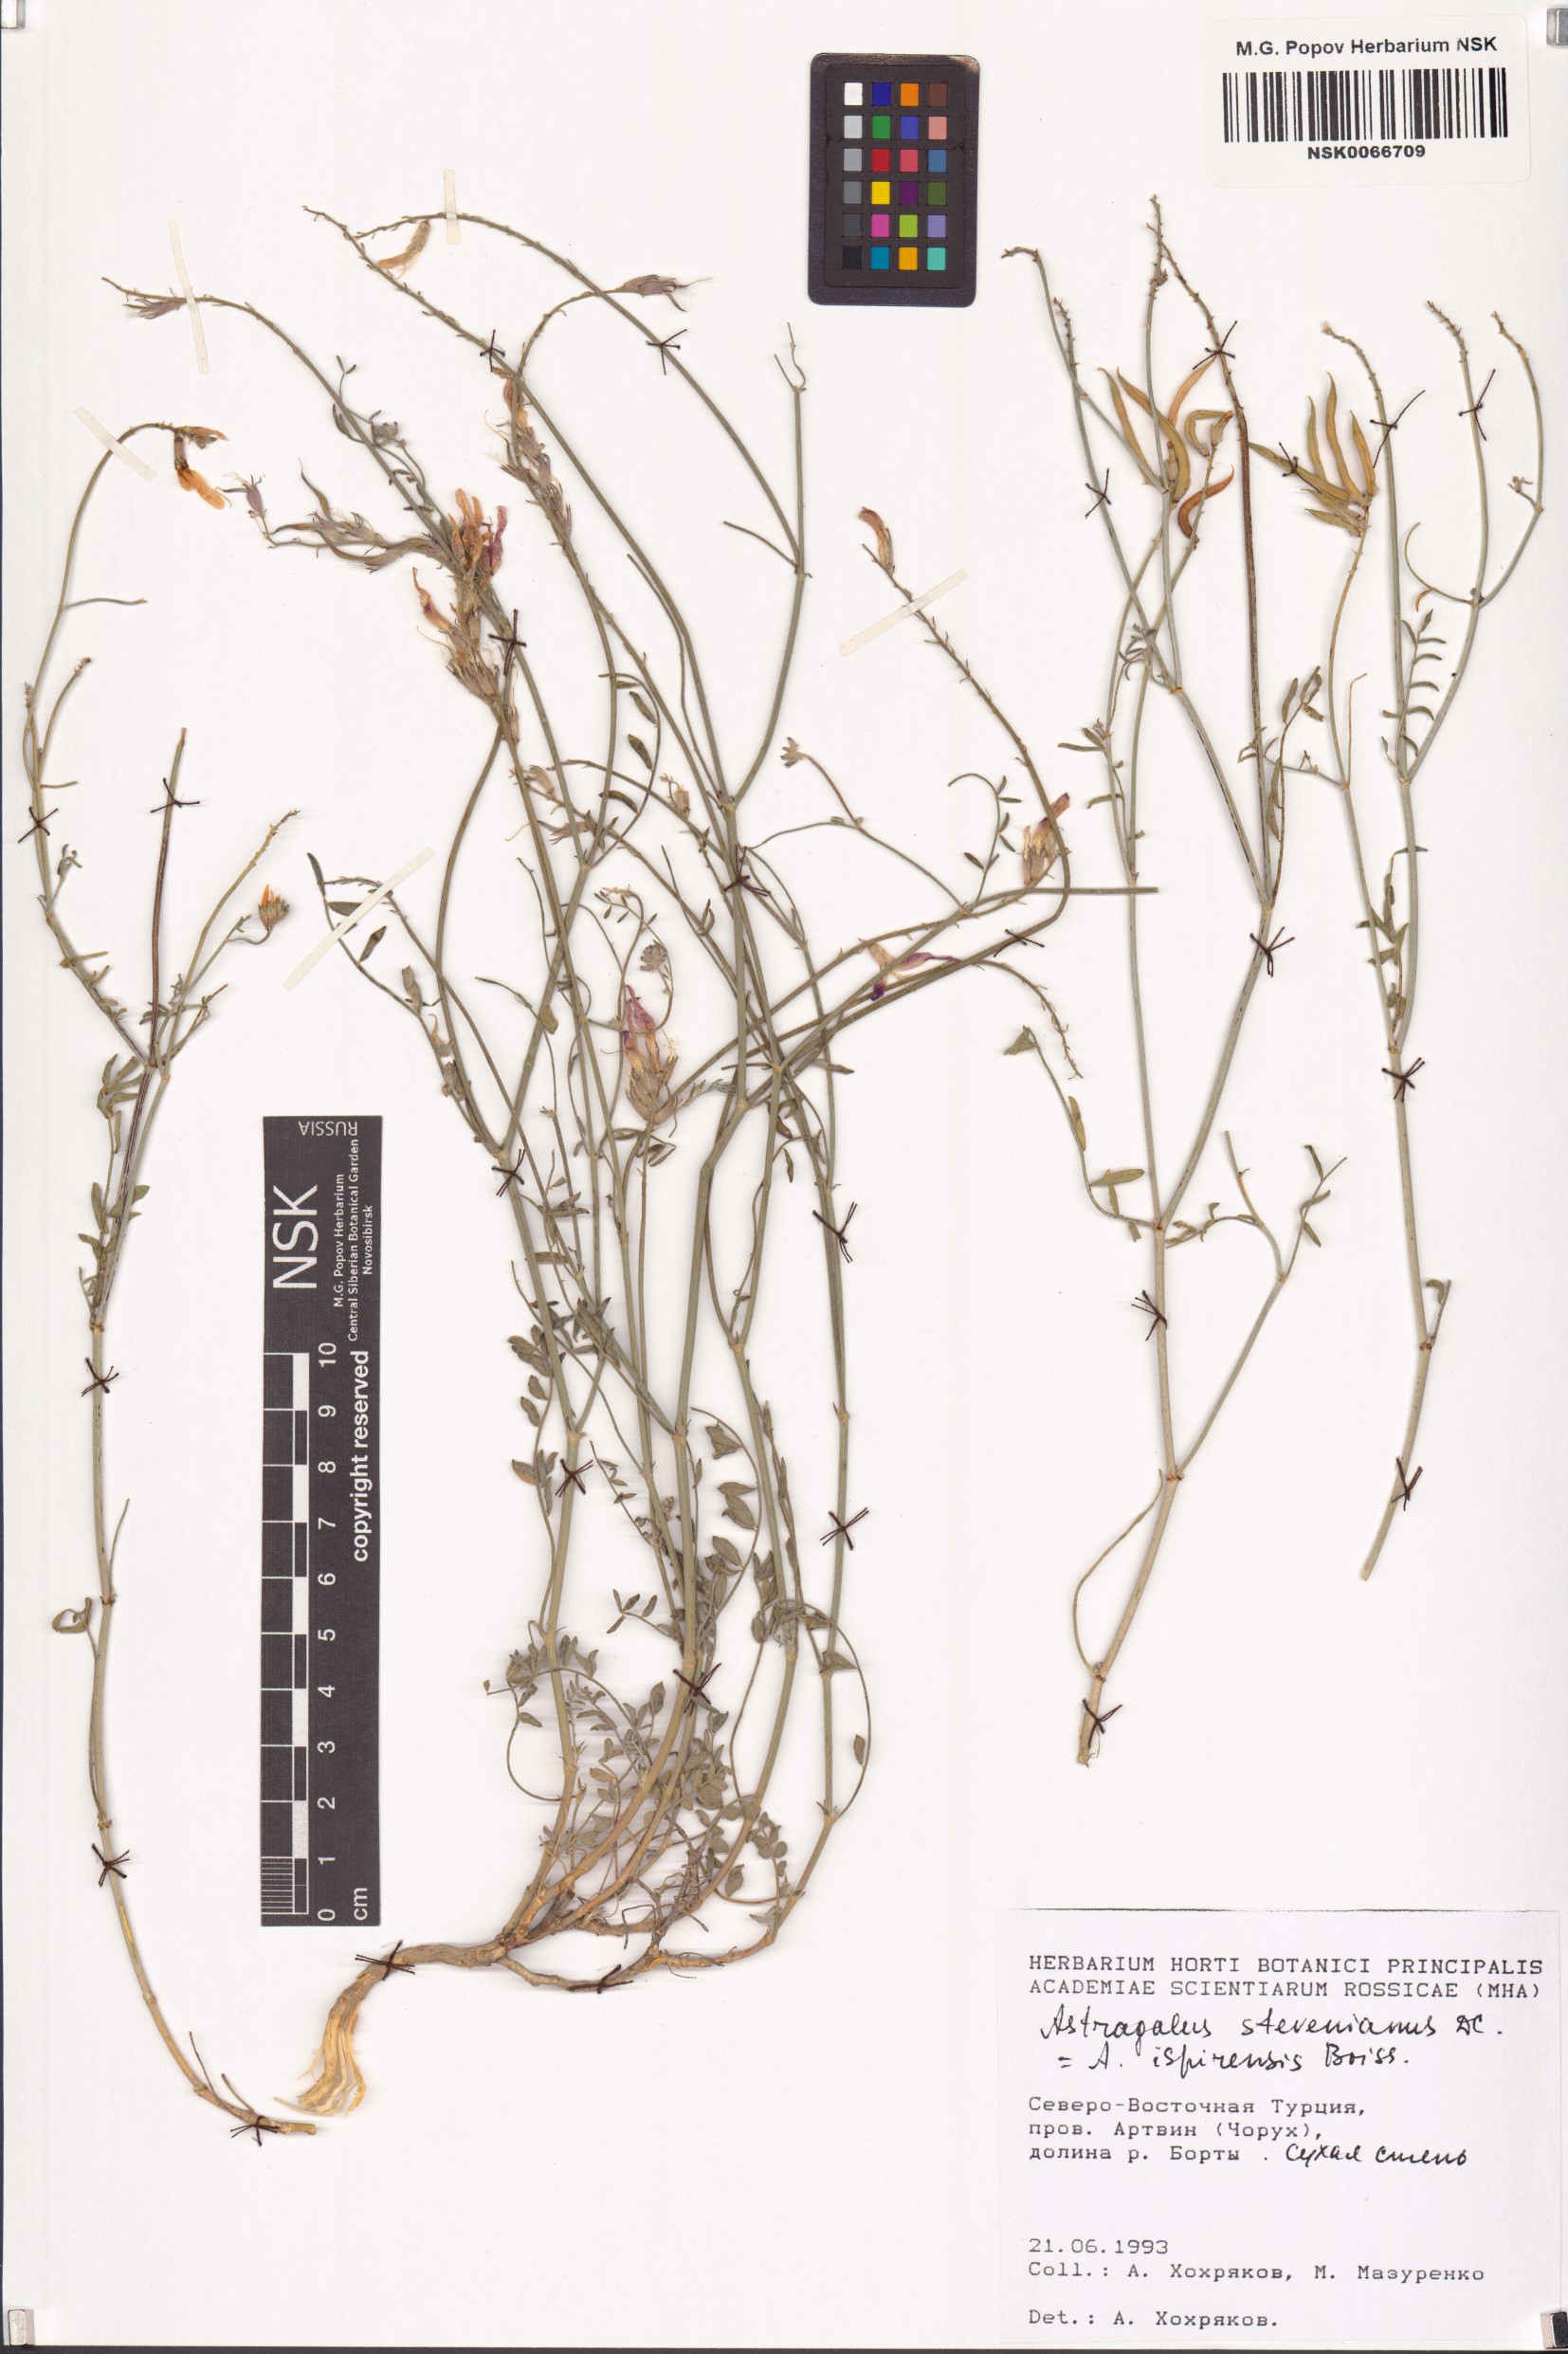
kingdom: Plantae
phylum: Tracheophyta
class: Magnoliopsida
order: Fabales
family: Fabaceae
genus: Astragalus
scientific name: Astragalus stevenianus
